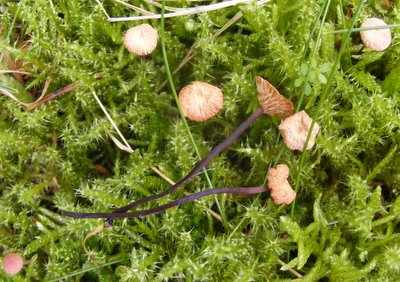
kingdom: Fungi
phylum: Basidiomycota
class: Agaricomycetes
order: Agaricales
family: Omphalotaceae
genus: Gymnopus
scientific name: Gymnopus androsaceus
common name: trådstokket fladhat
